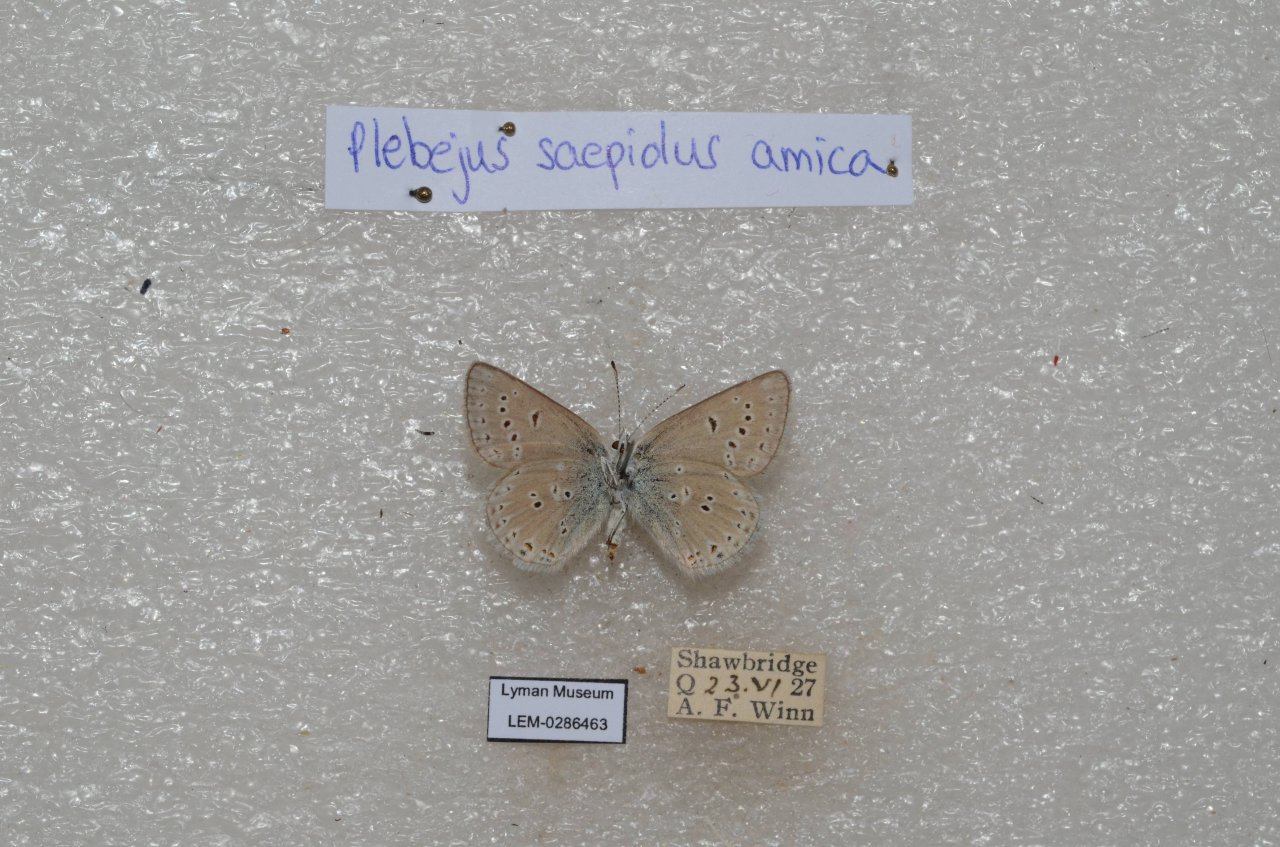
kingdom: Animalia
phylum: Arthropoda
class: Insecta
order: Lepidoptera
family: Lycaenidae
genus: Plebejus
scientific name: Plebejus saepiolus
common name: Greenish Blue
